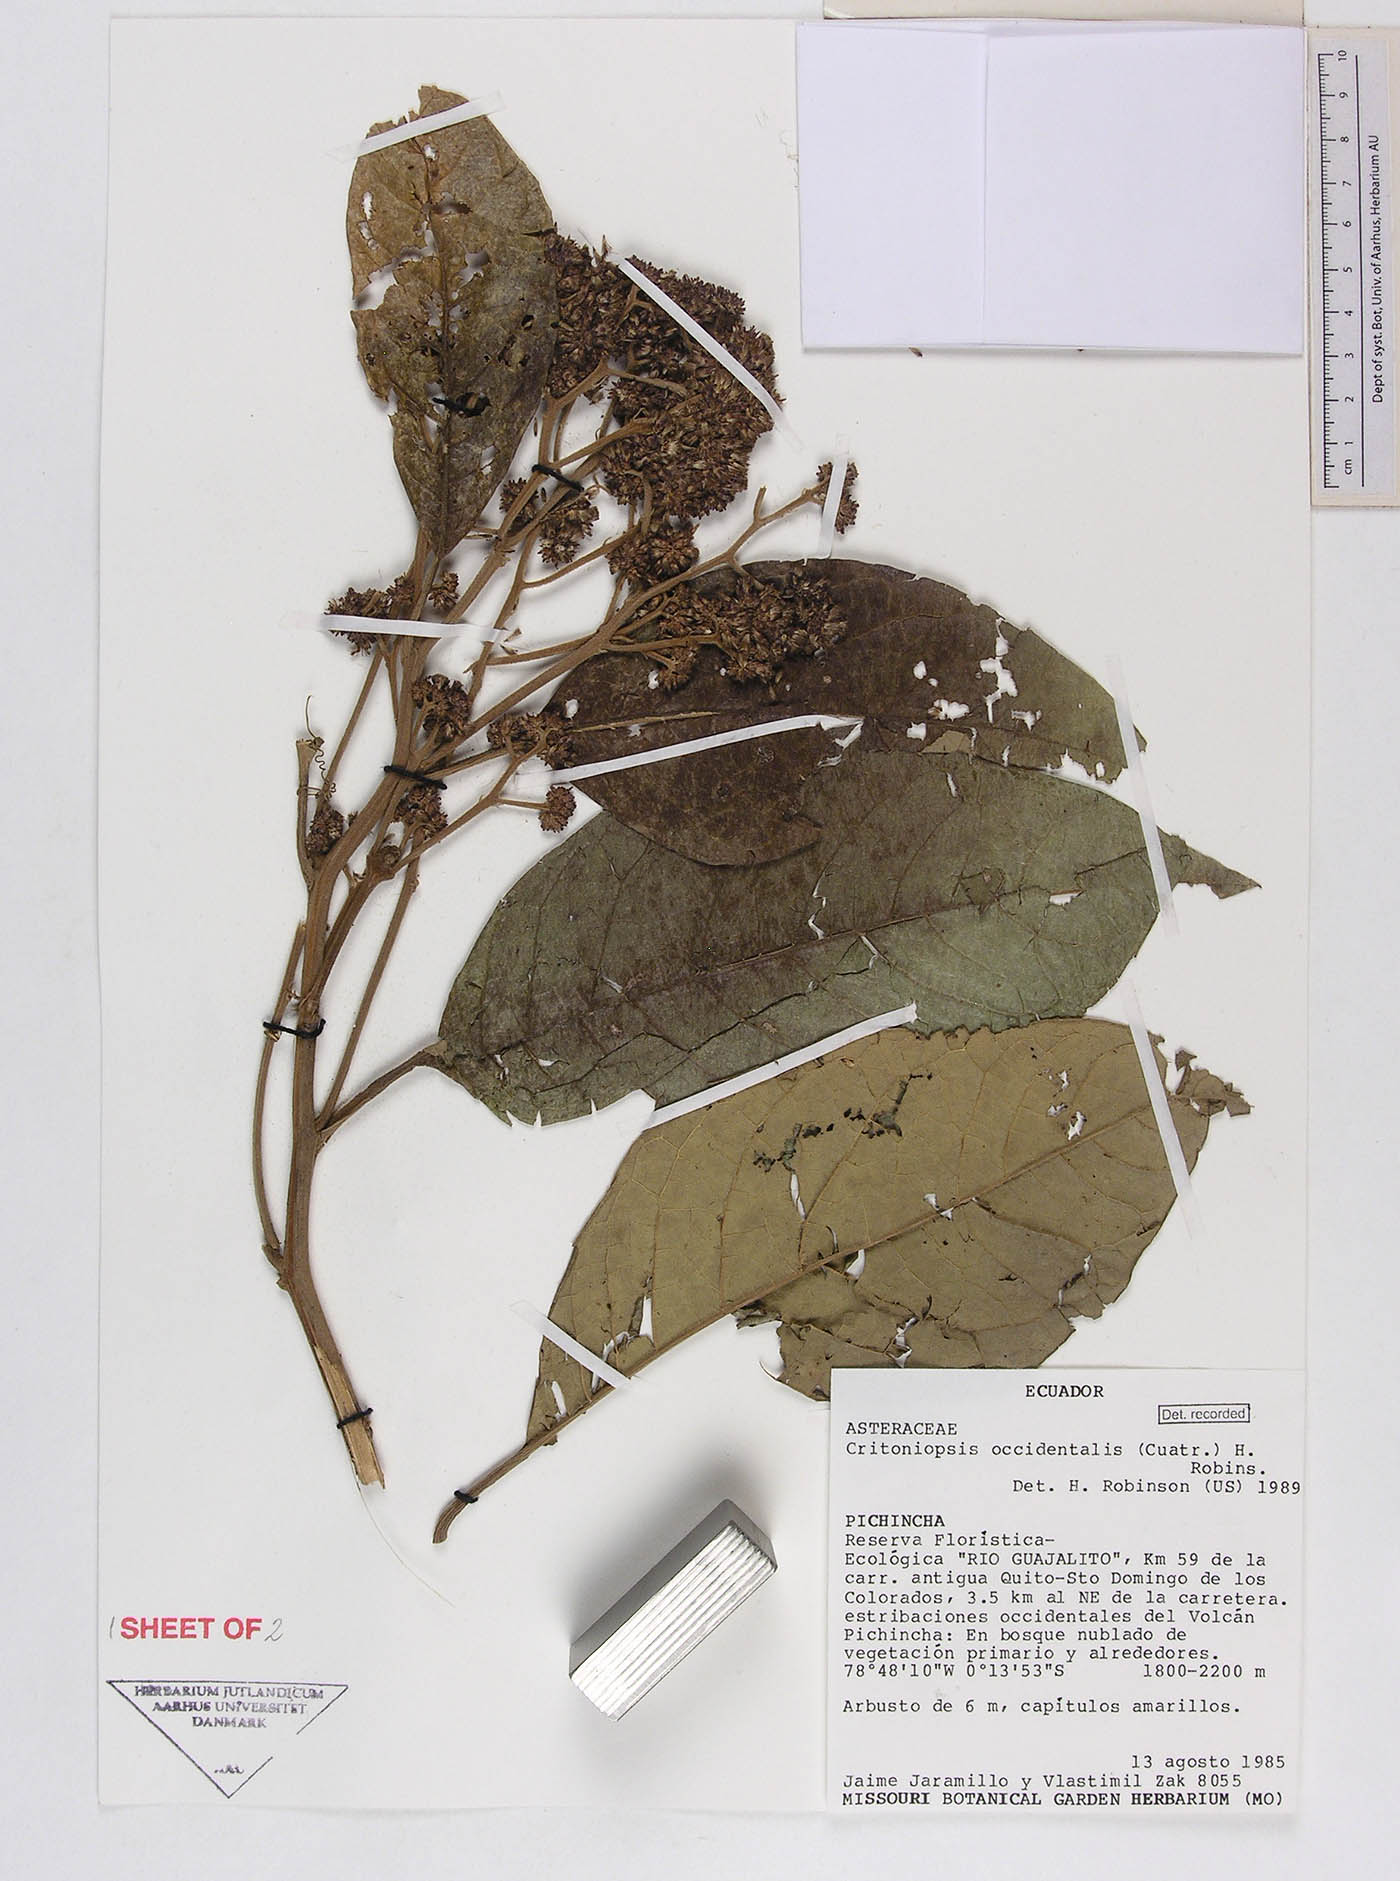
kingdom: Plantae
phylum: Tracheophyta
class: Magnoliopsida
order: Asterales
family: Asteraceae
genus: Critoniopsis
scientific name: Critoniopsis occidentalis
